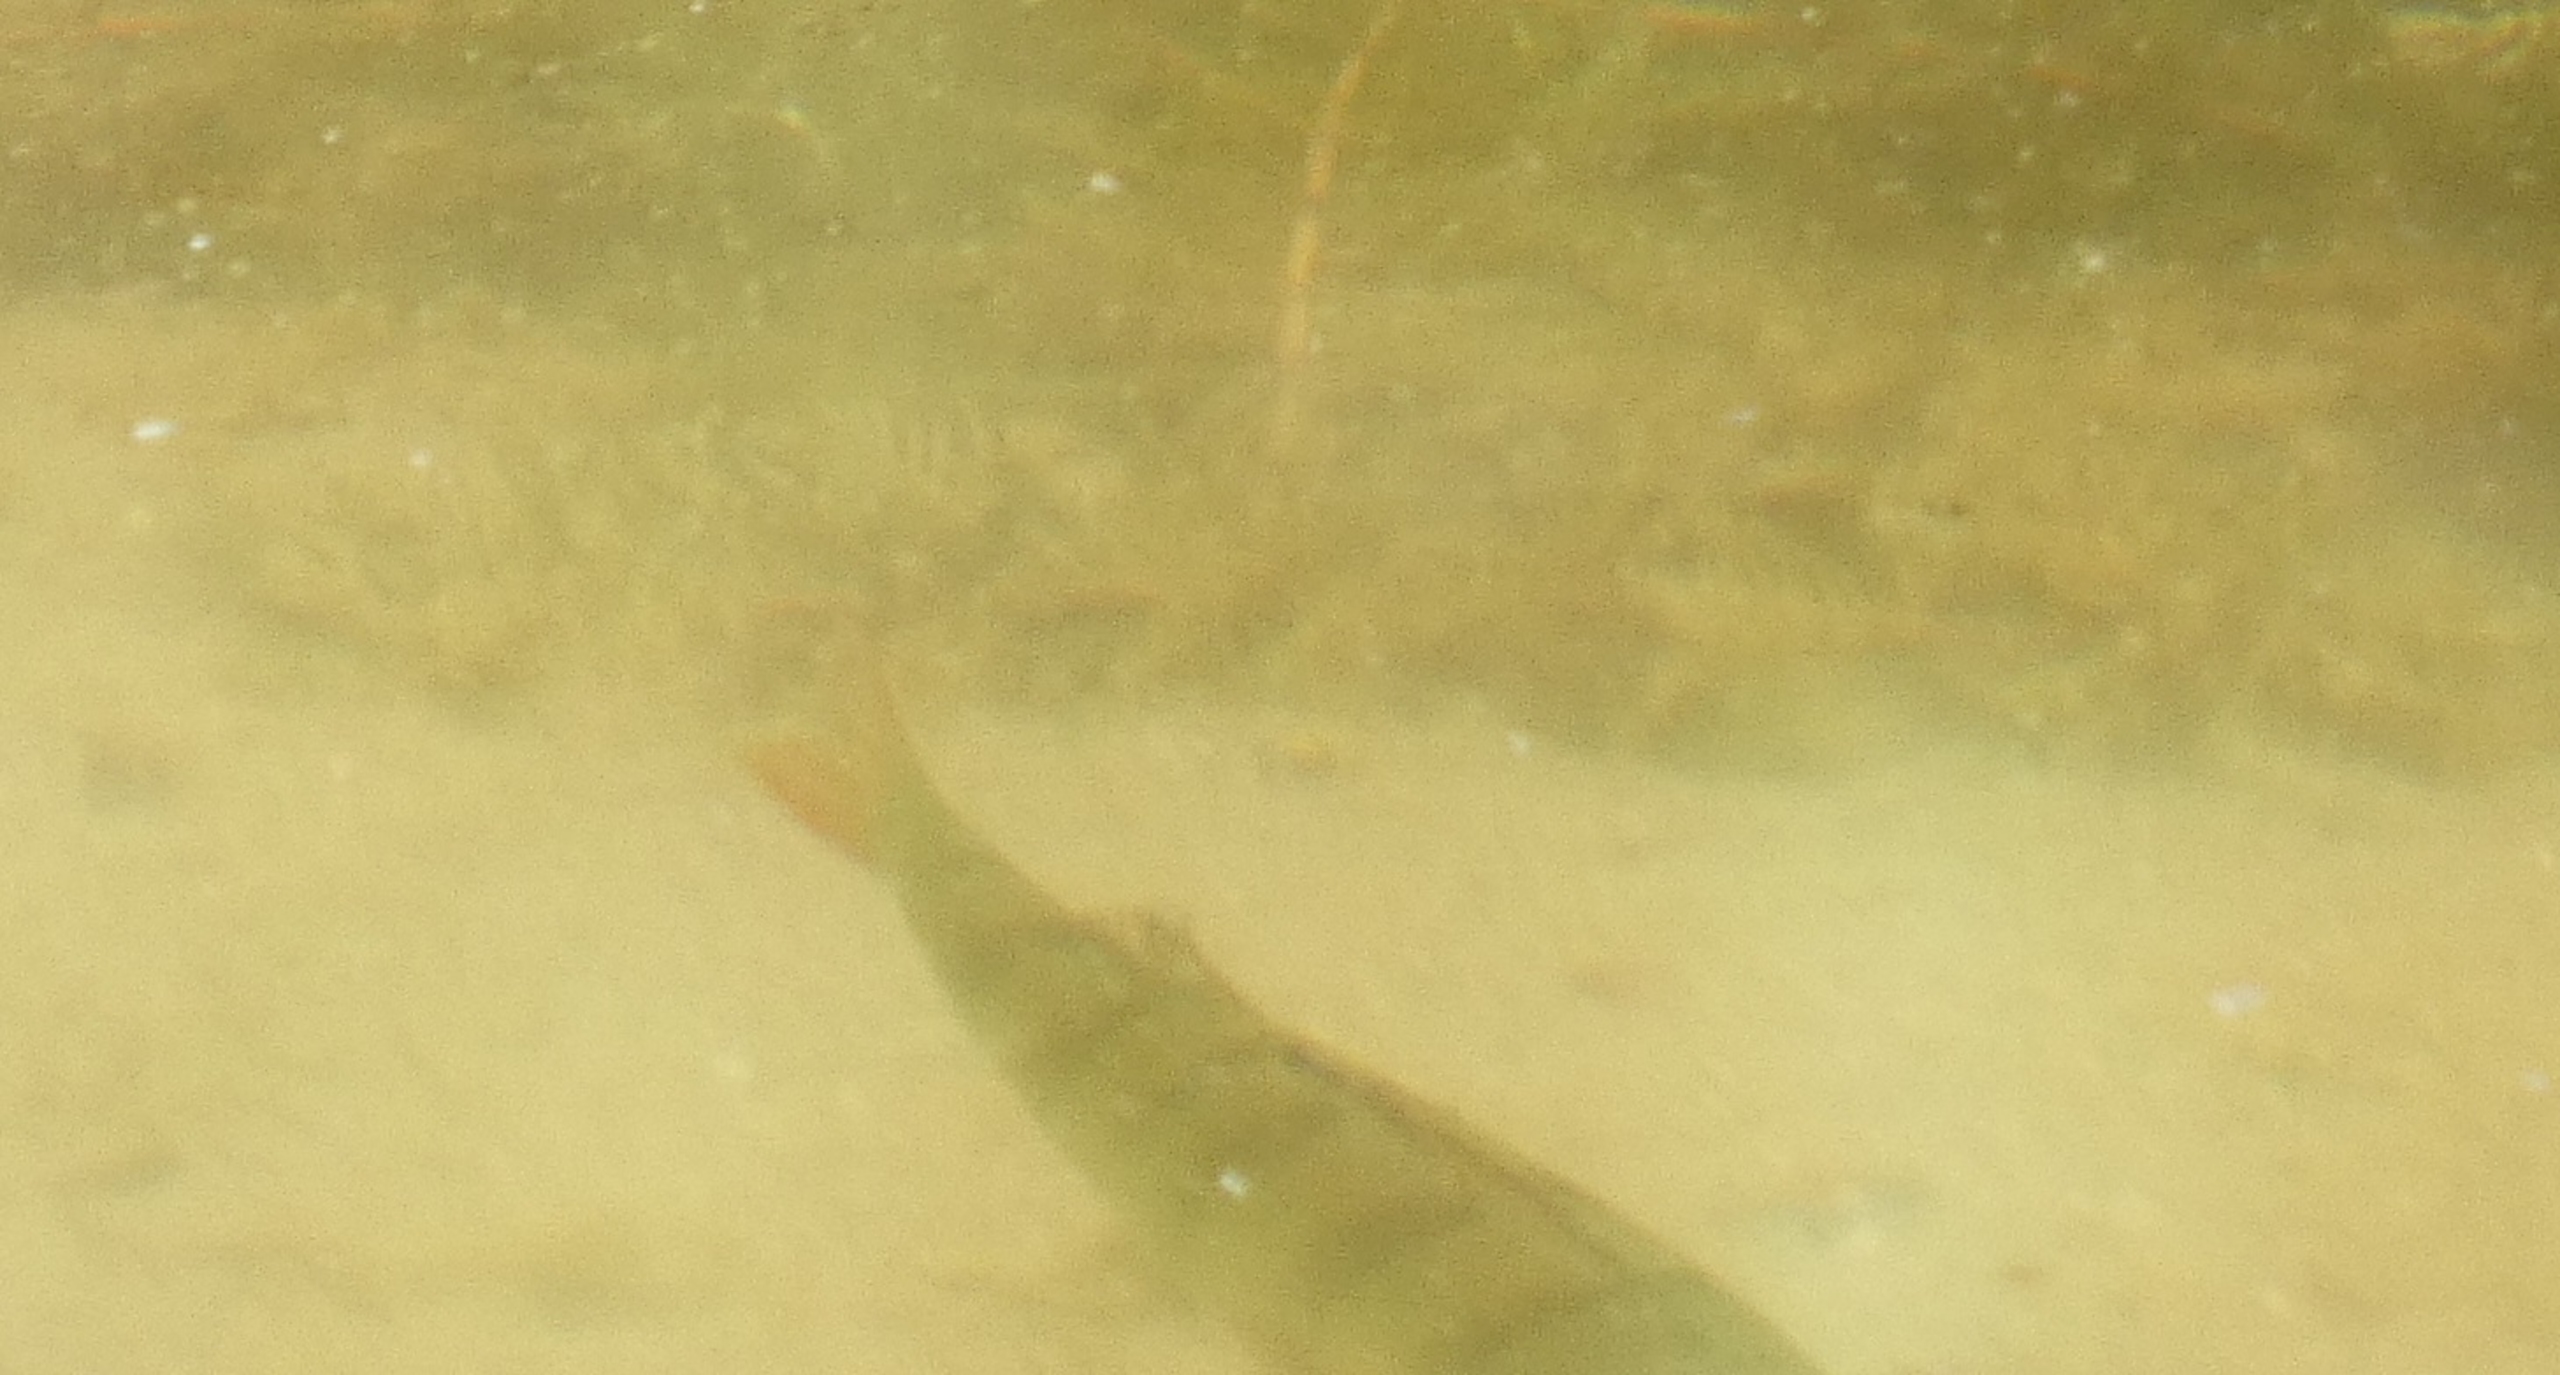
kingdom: Animalia
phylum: Chordata
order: Perciformes
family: Percidae
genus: Perca
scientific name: Perca fluviatilis
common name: Aborre
